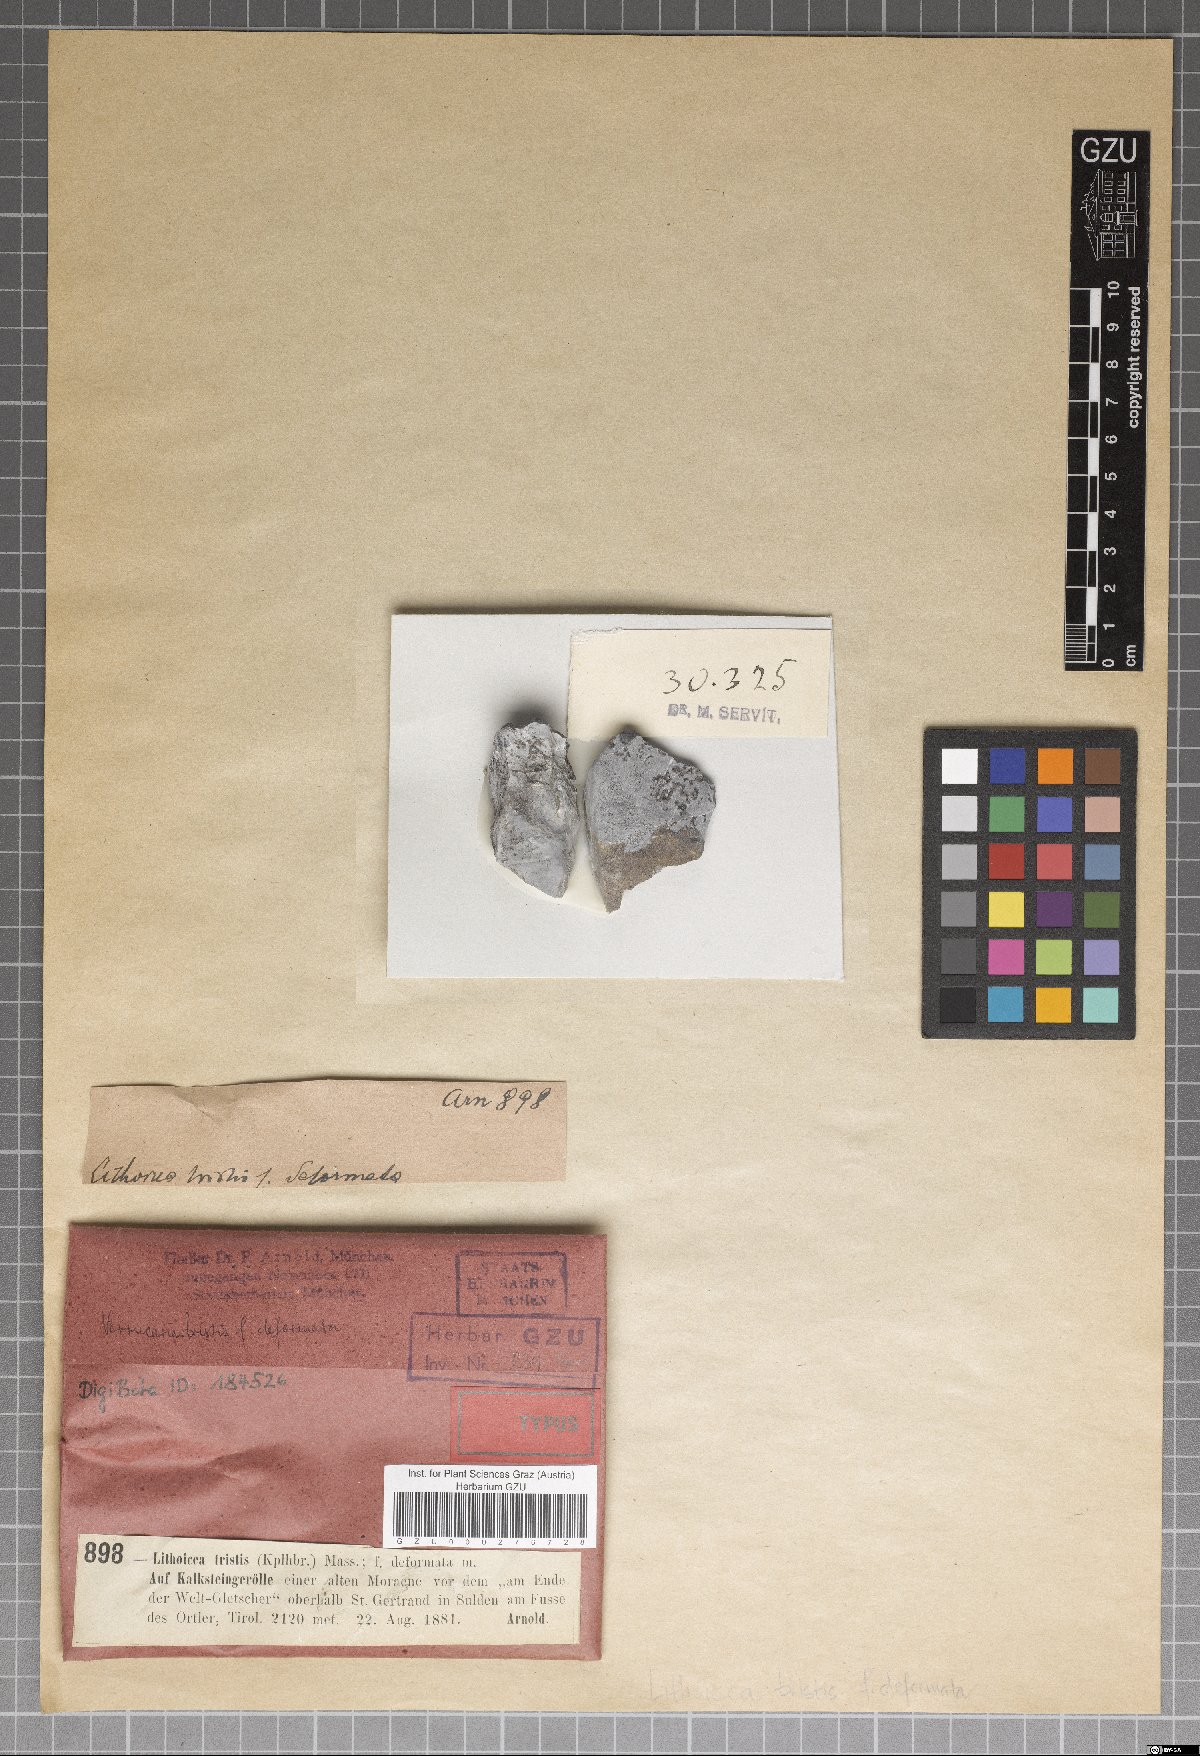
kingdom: Fungi
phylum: Ascomycota
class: Eurotiomycetes
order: Verrucariales
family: Verrucariaceae
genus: Verrucaria
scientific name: Verrucaria Lithocia tristis
